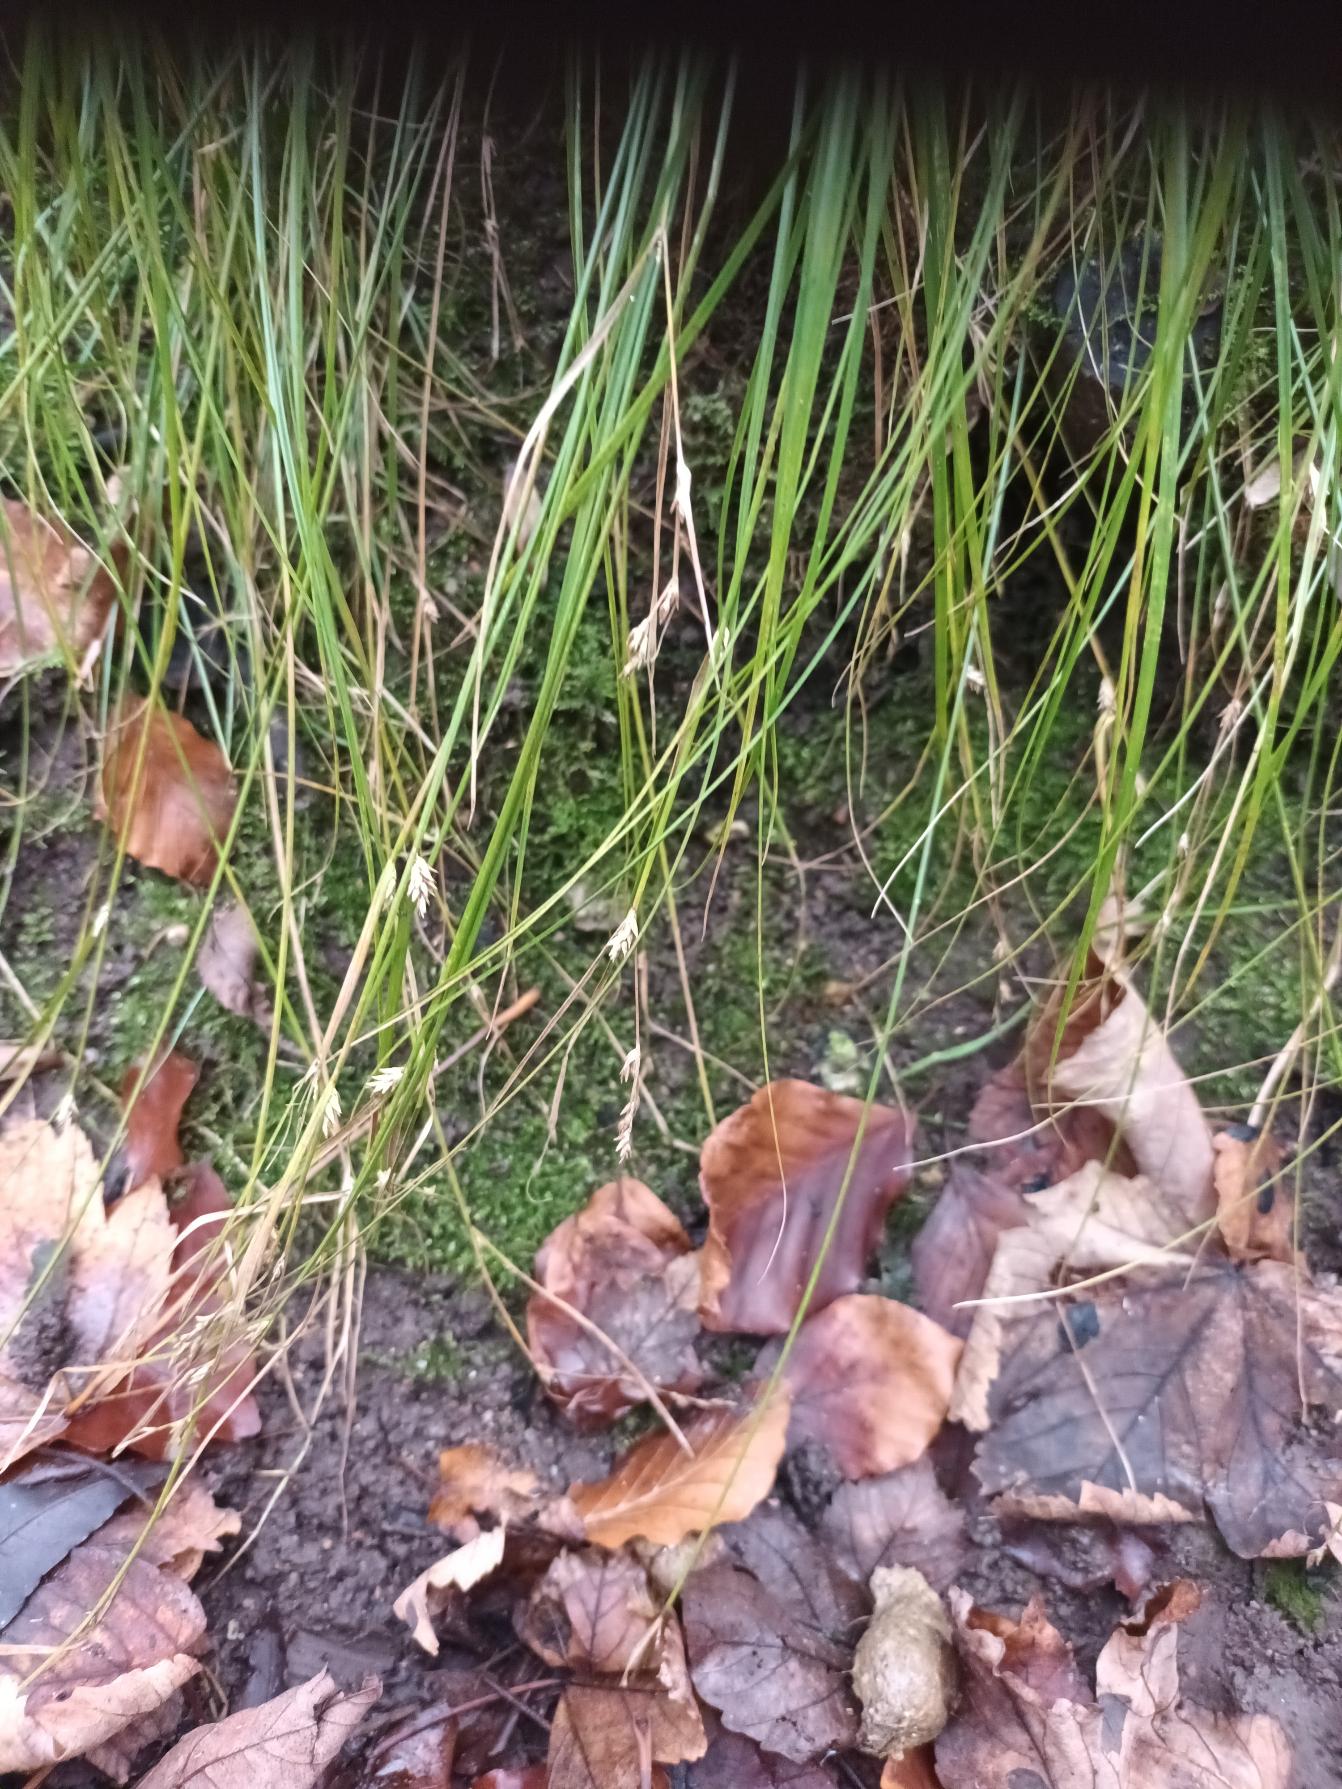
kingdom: Plantae
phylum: Tracheophyta
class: Liliopsida
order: Poales
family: Cyperaceae
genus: Carex
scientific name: Carex remota
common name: Akselblomstret star
